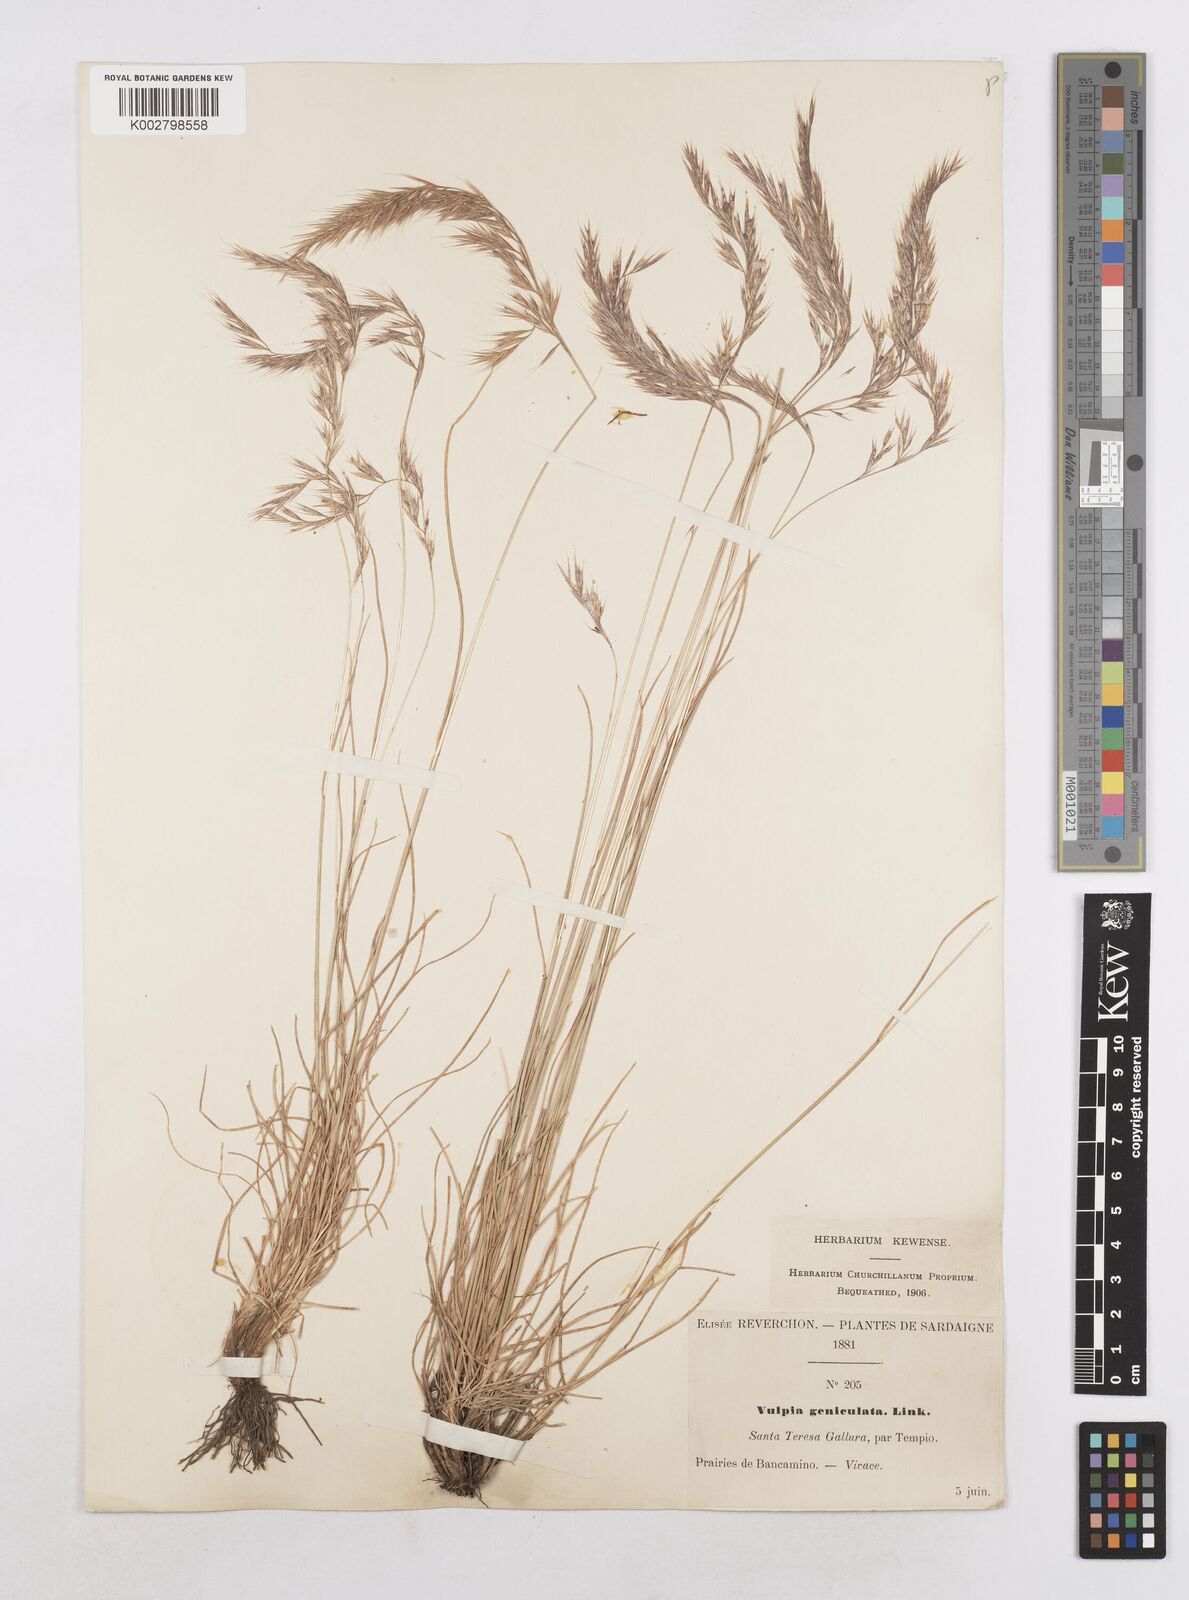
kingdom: Plantae
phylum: Tracheophyta
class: Liliopsida
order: Poales
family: Poaceae
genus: Festuca
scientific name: Festuca geniculata
